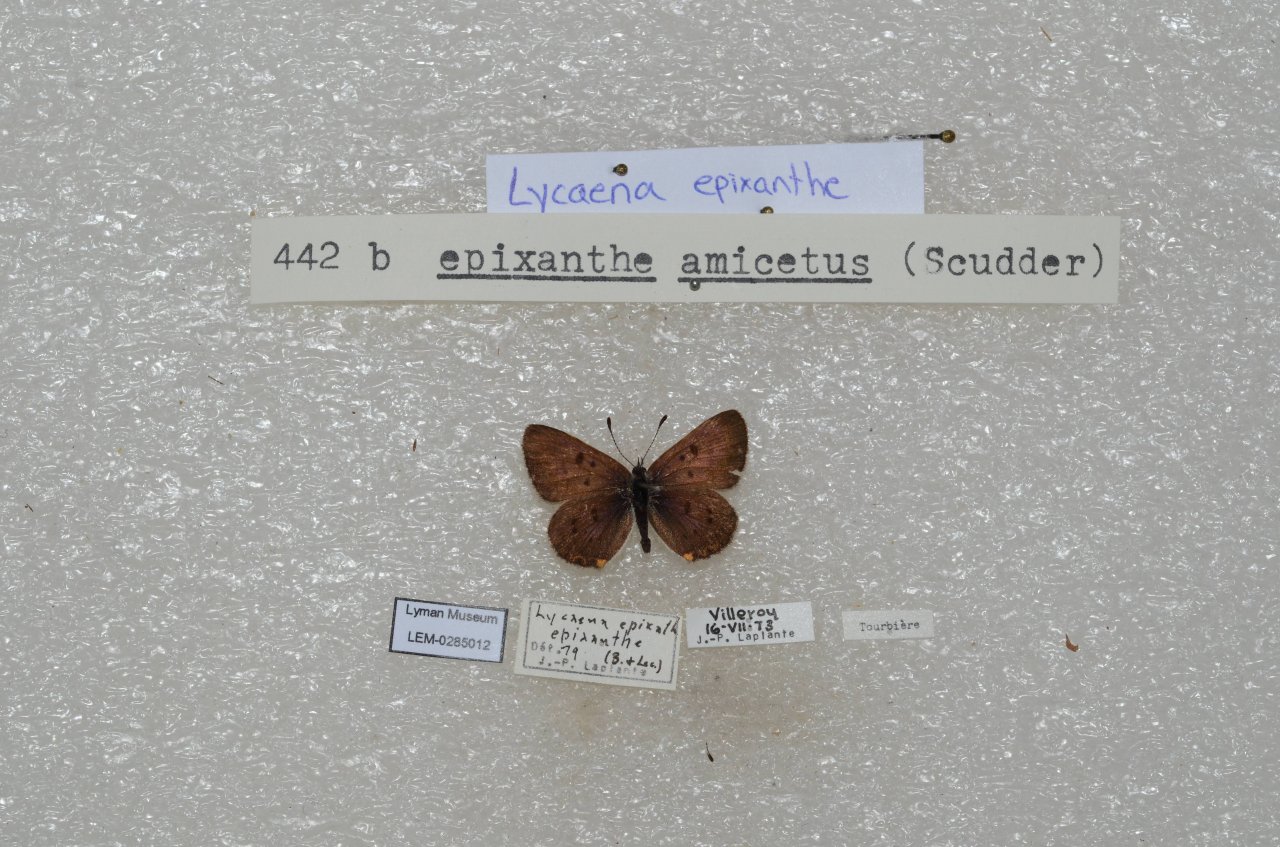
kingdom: Animalia
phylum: Arthropoda
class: Insecta
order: Lepidoptera
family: Sesiidae
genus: Sesia
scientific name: Sesia Lycaena epixanthe
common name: Bog Copper
